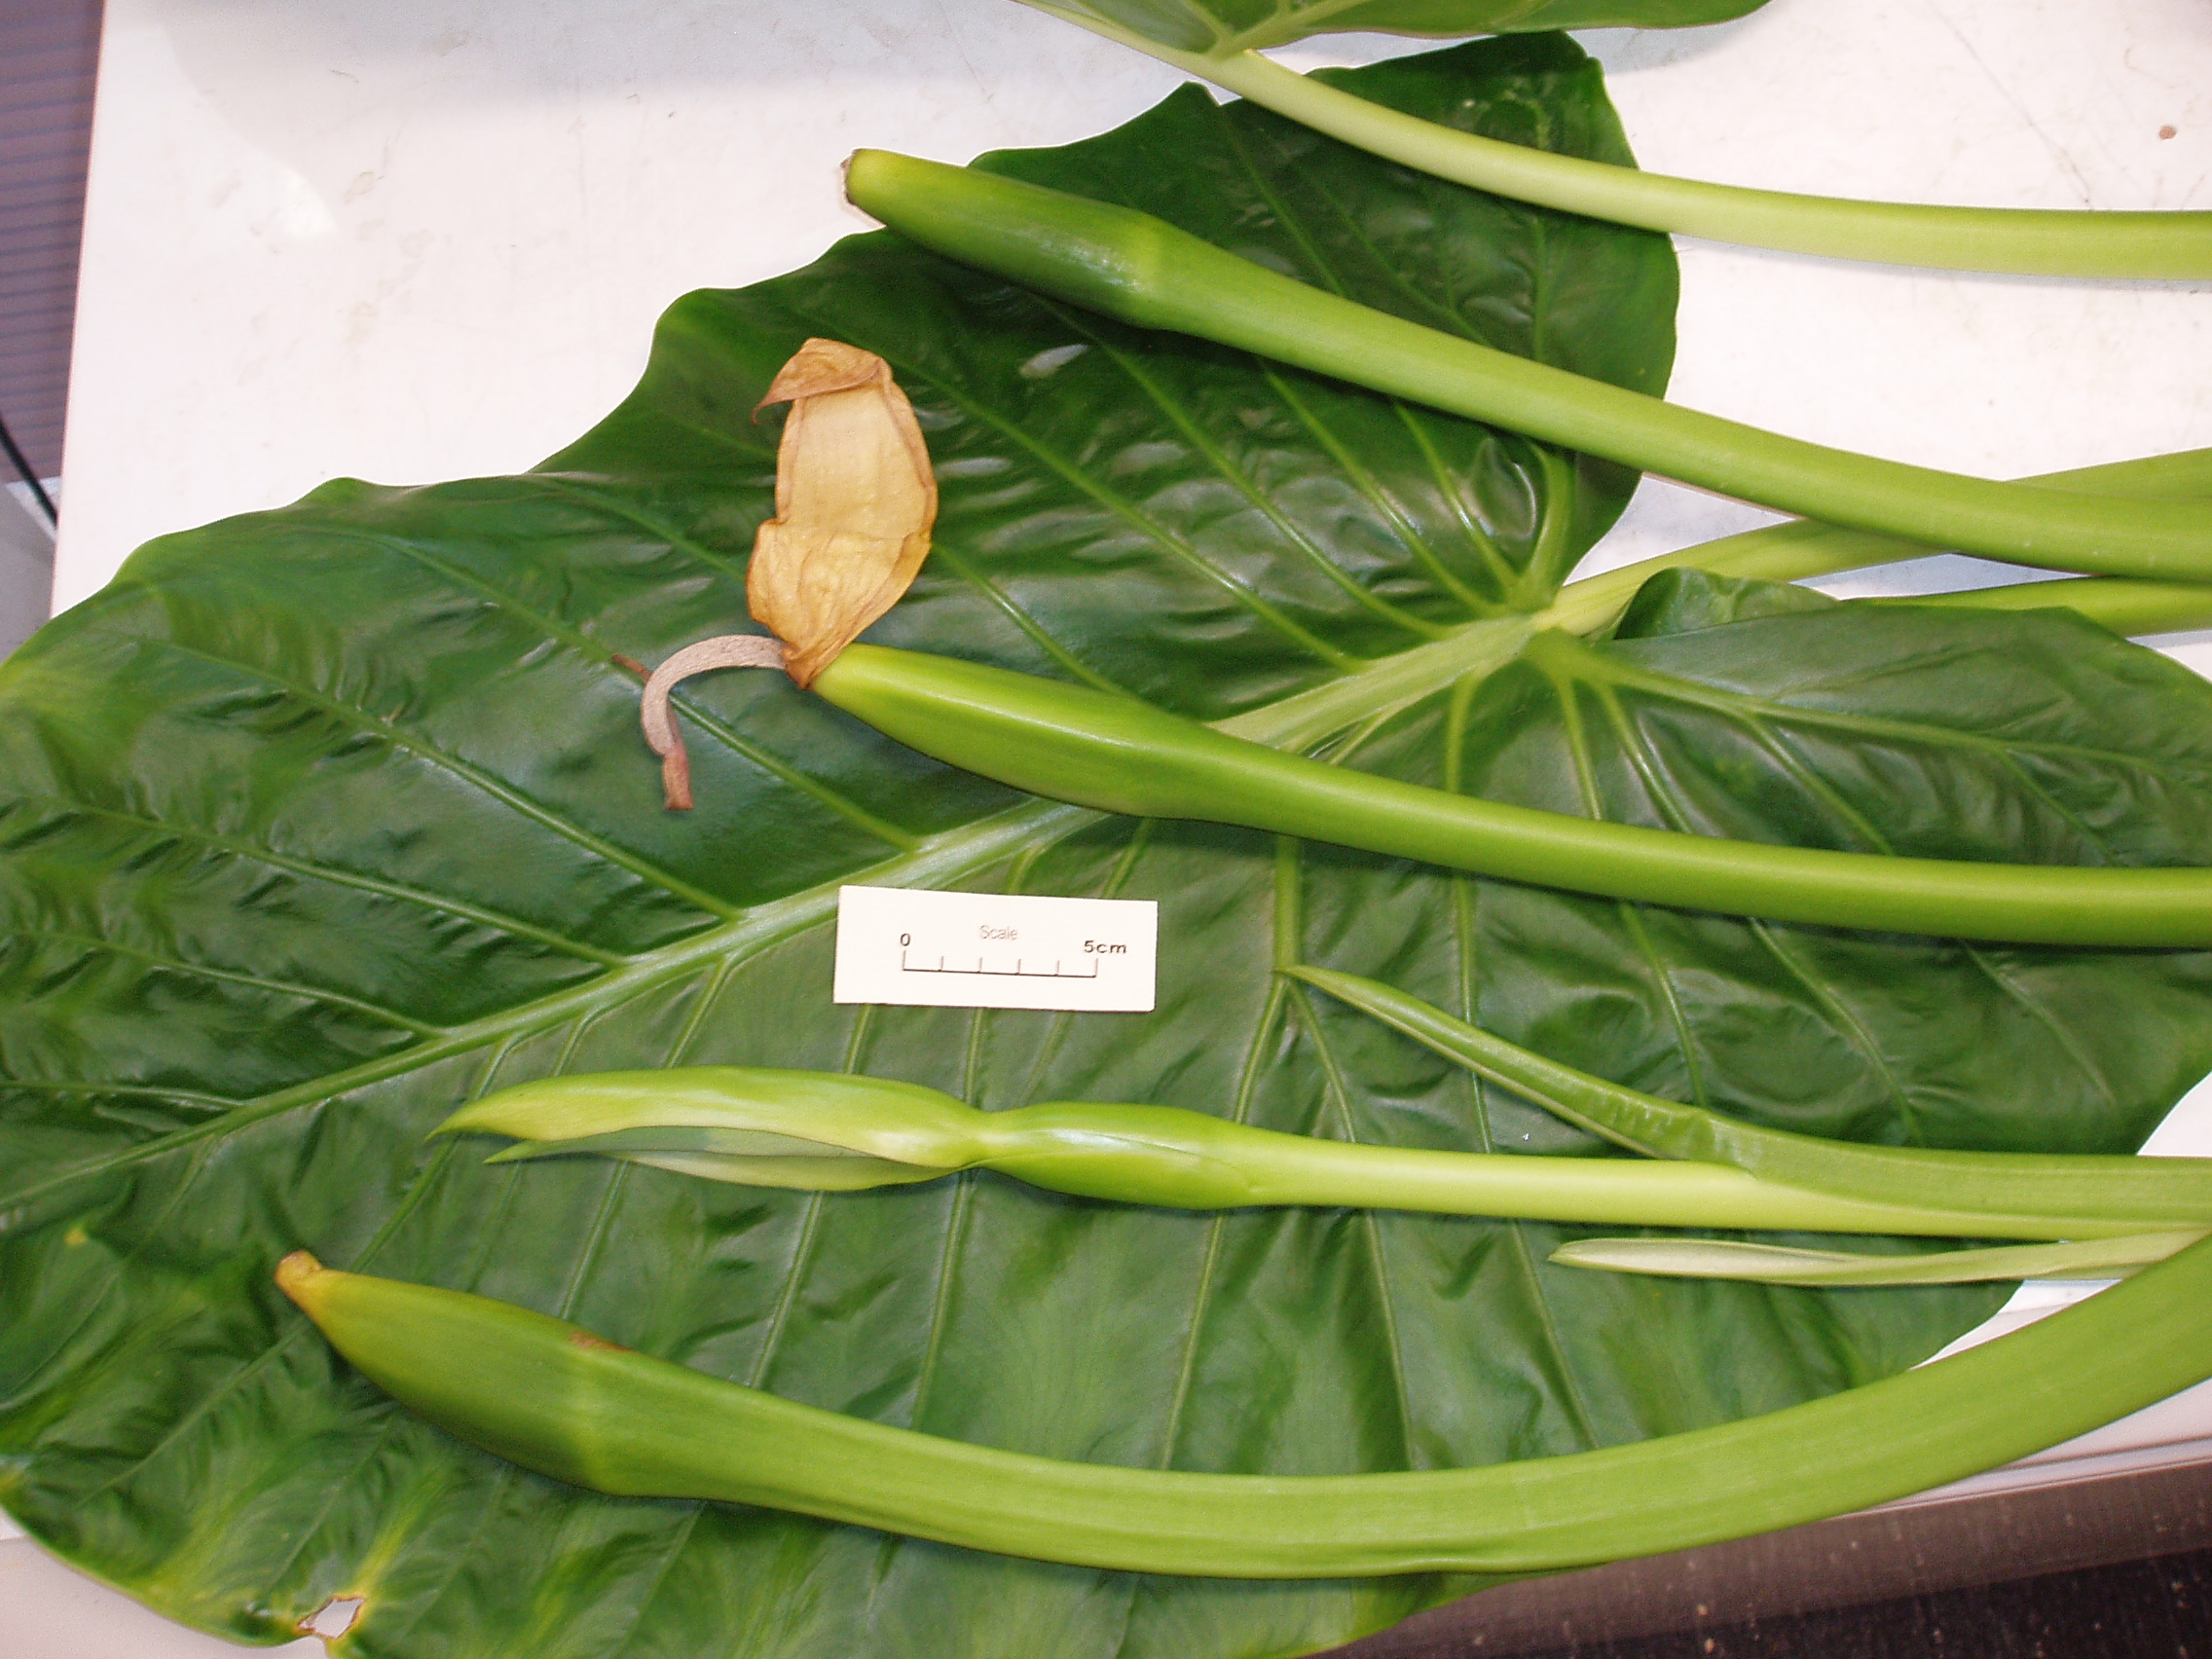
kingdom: Plantae
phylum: Tracheophyta
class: Liliopsida
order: Alismatales
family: Araceae
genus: Alocasia
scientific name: Alocasia brisbanensis
